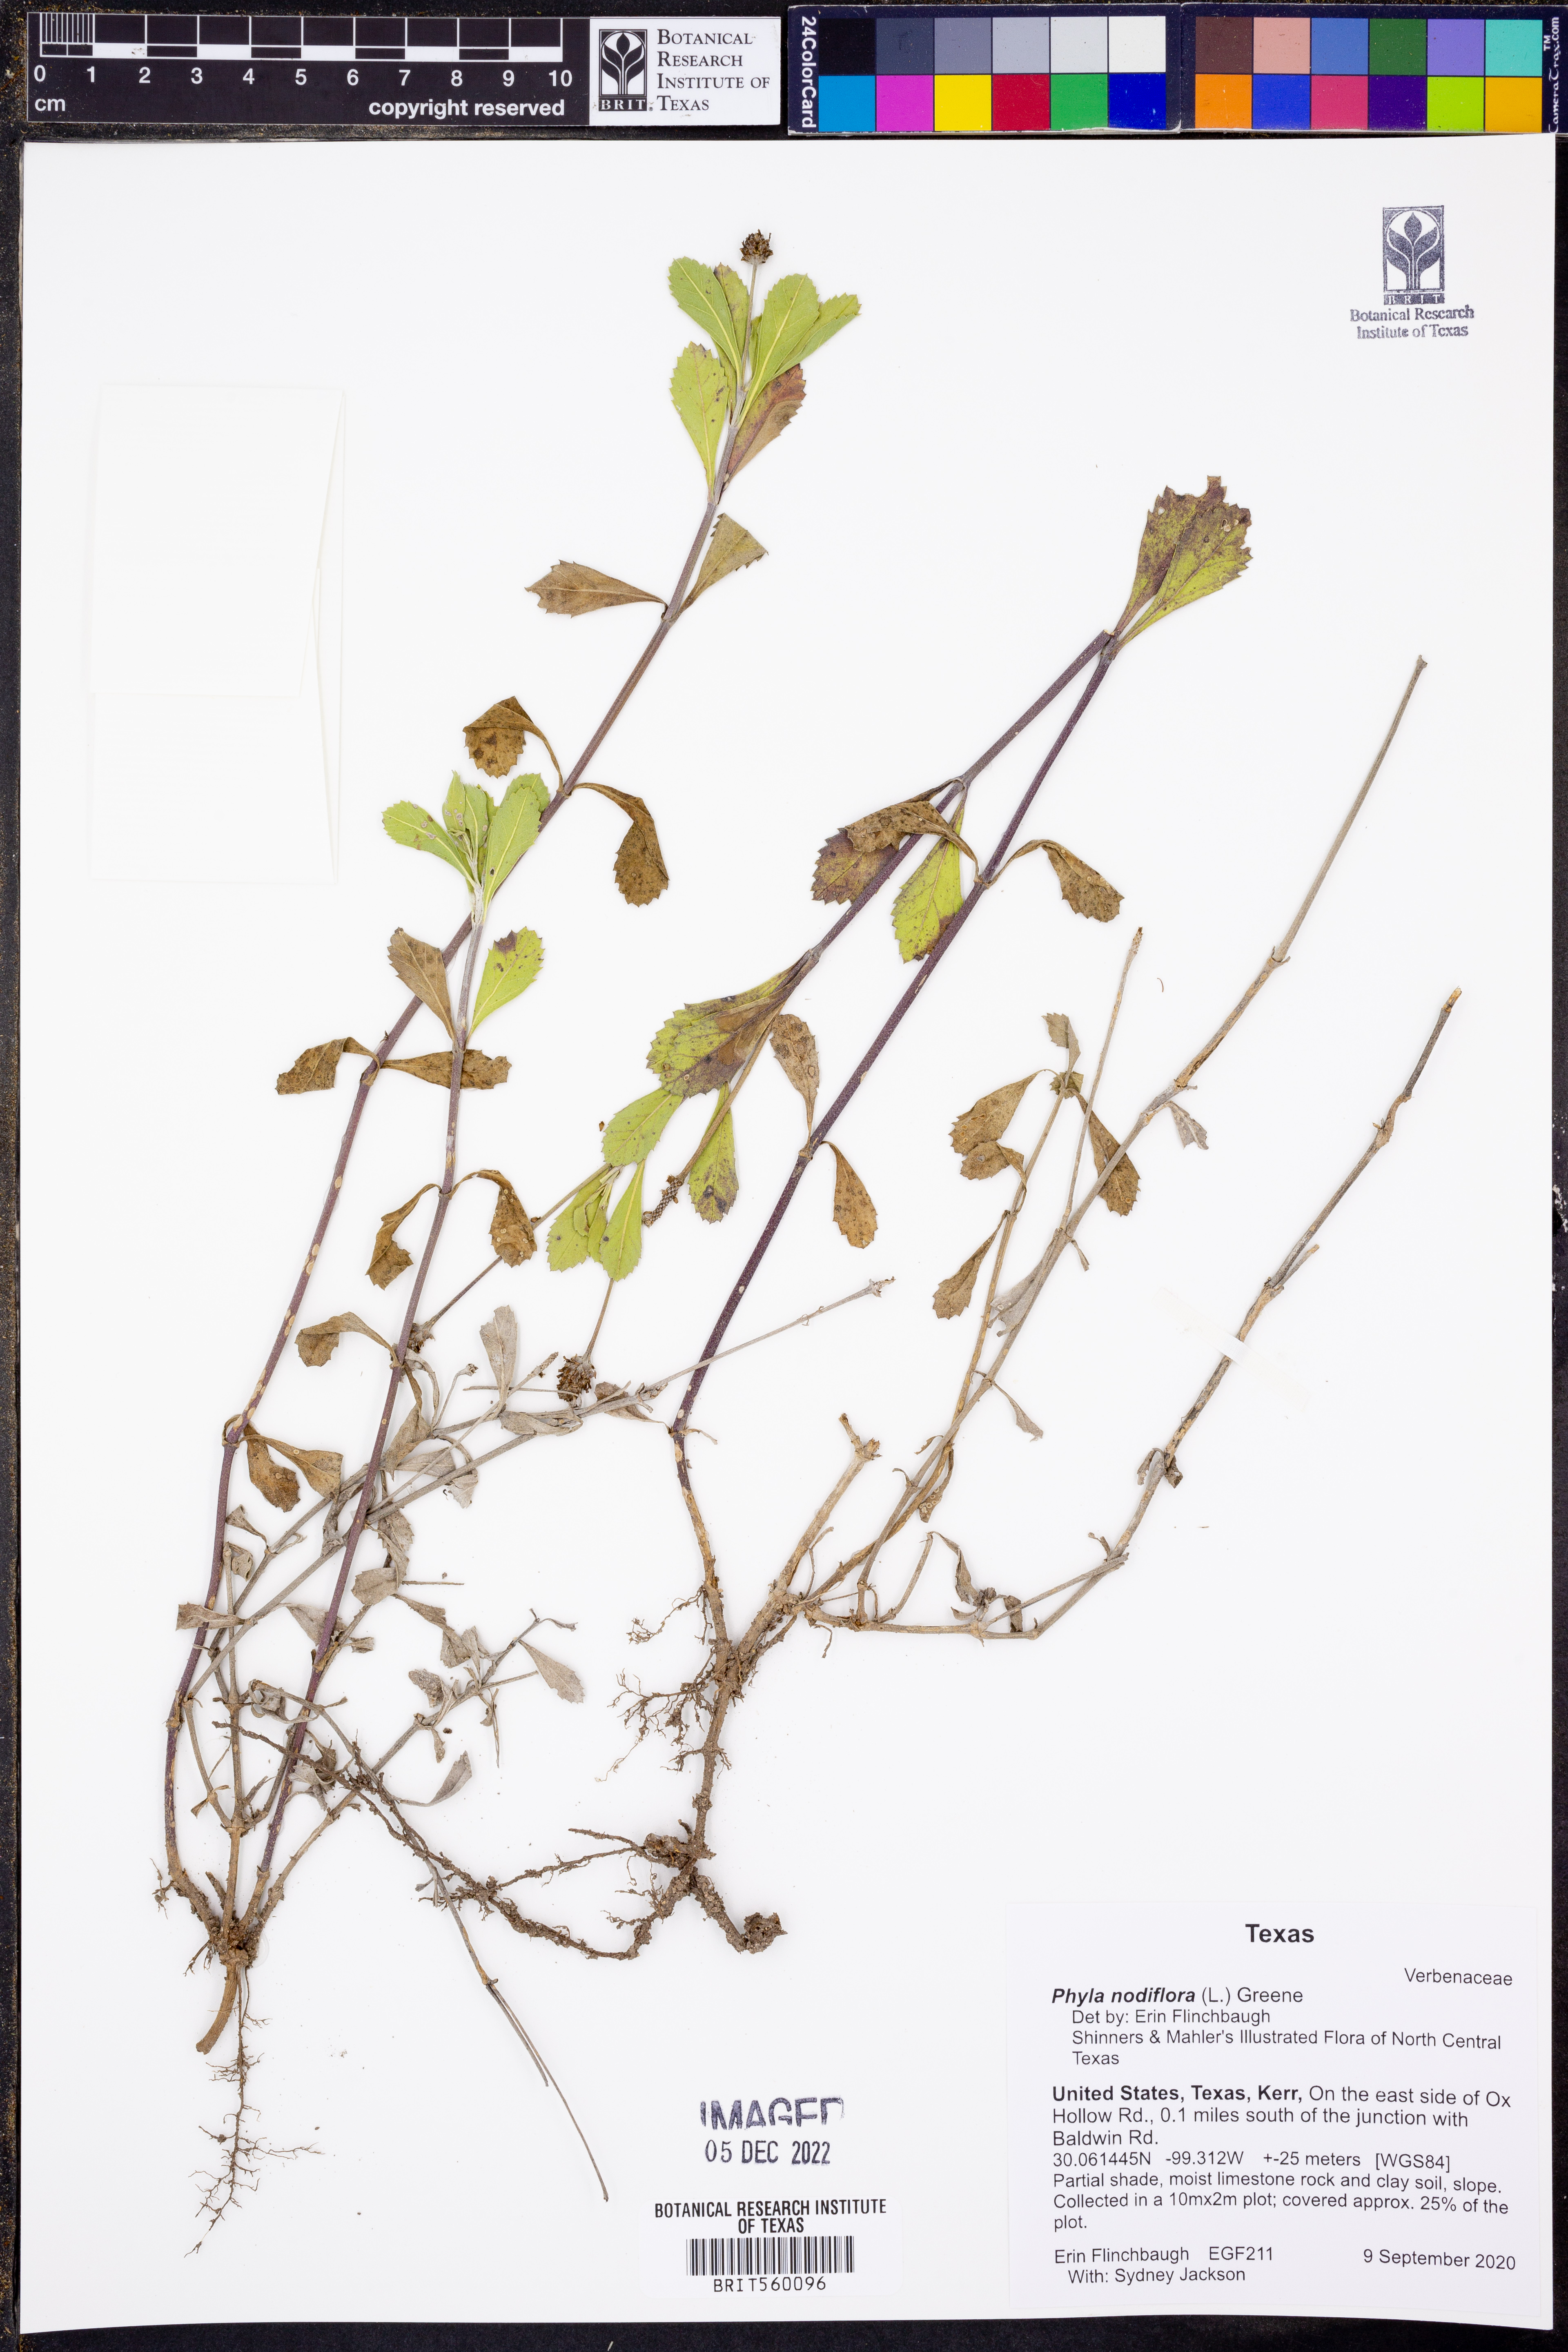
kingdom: Plantae
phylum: Tracheophyta
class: Magnoliopsida
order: Lamiales
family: Verbenaceae
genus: Phyla
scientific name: Phyla nodiflora
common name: Frogfruit
